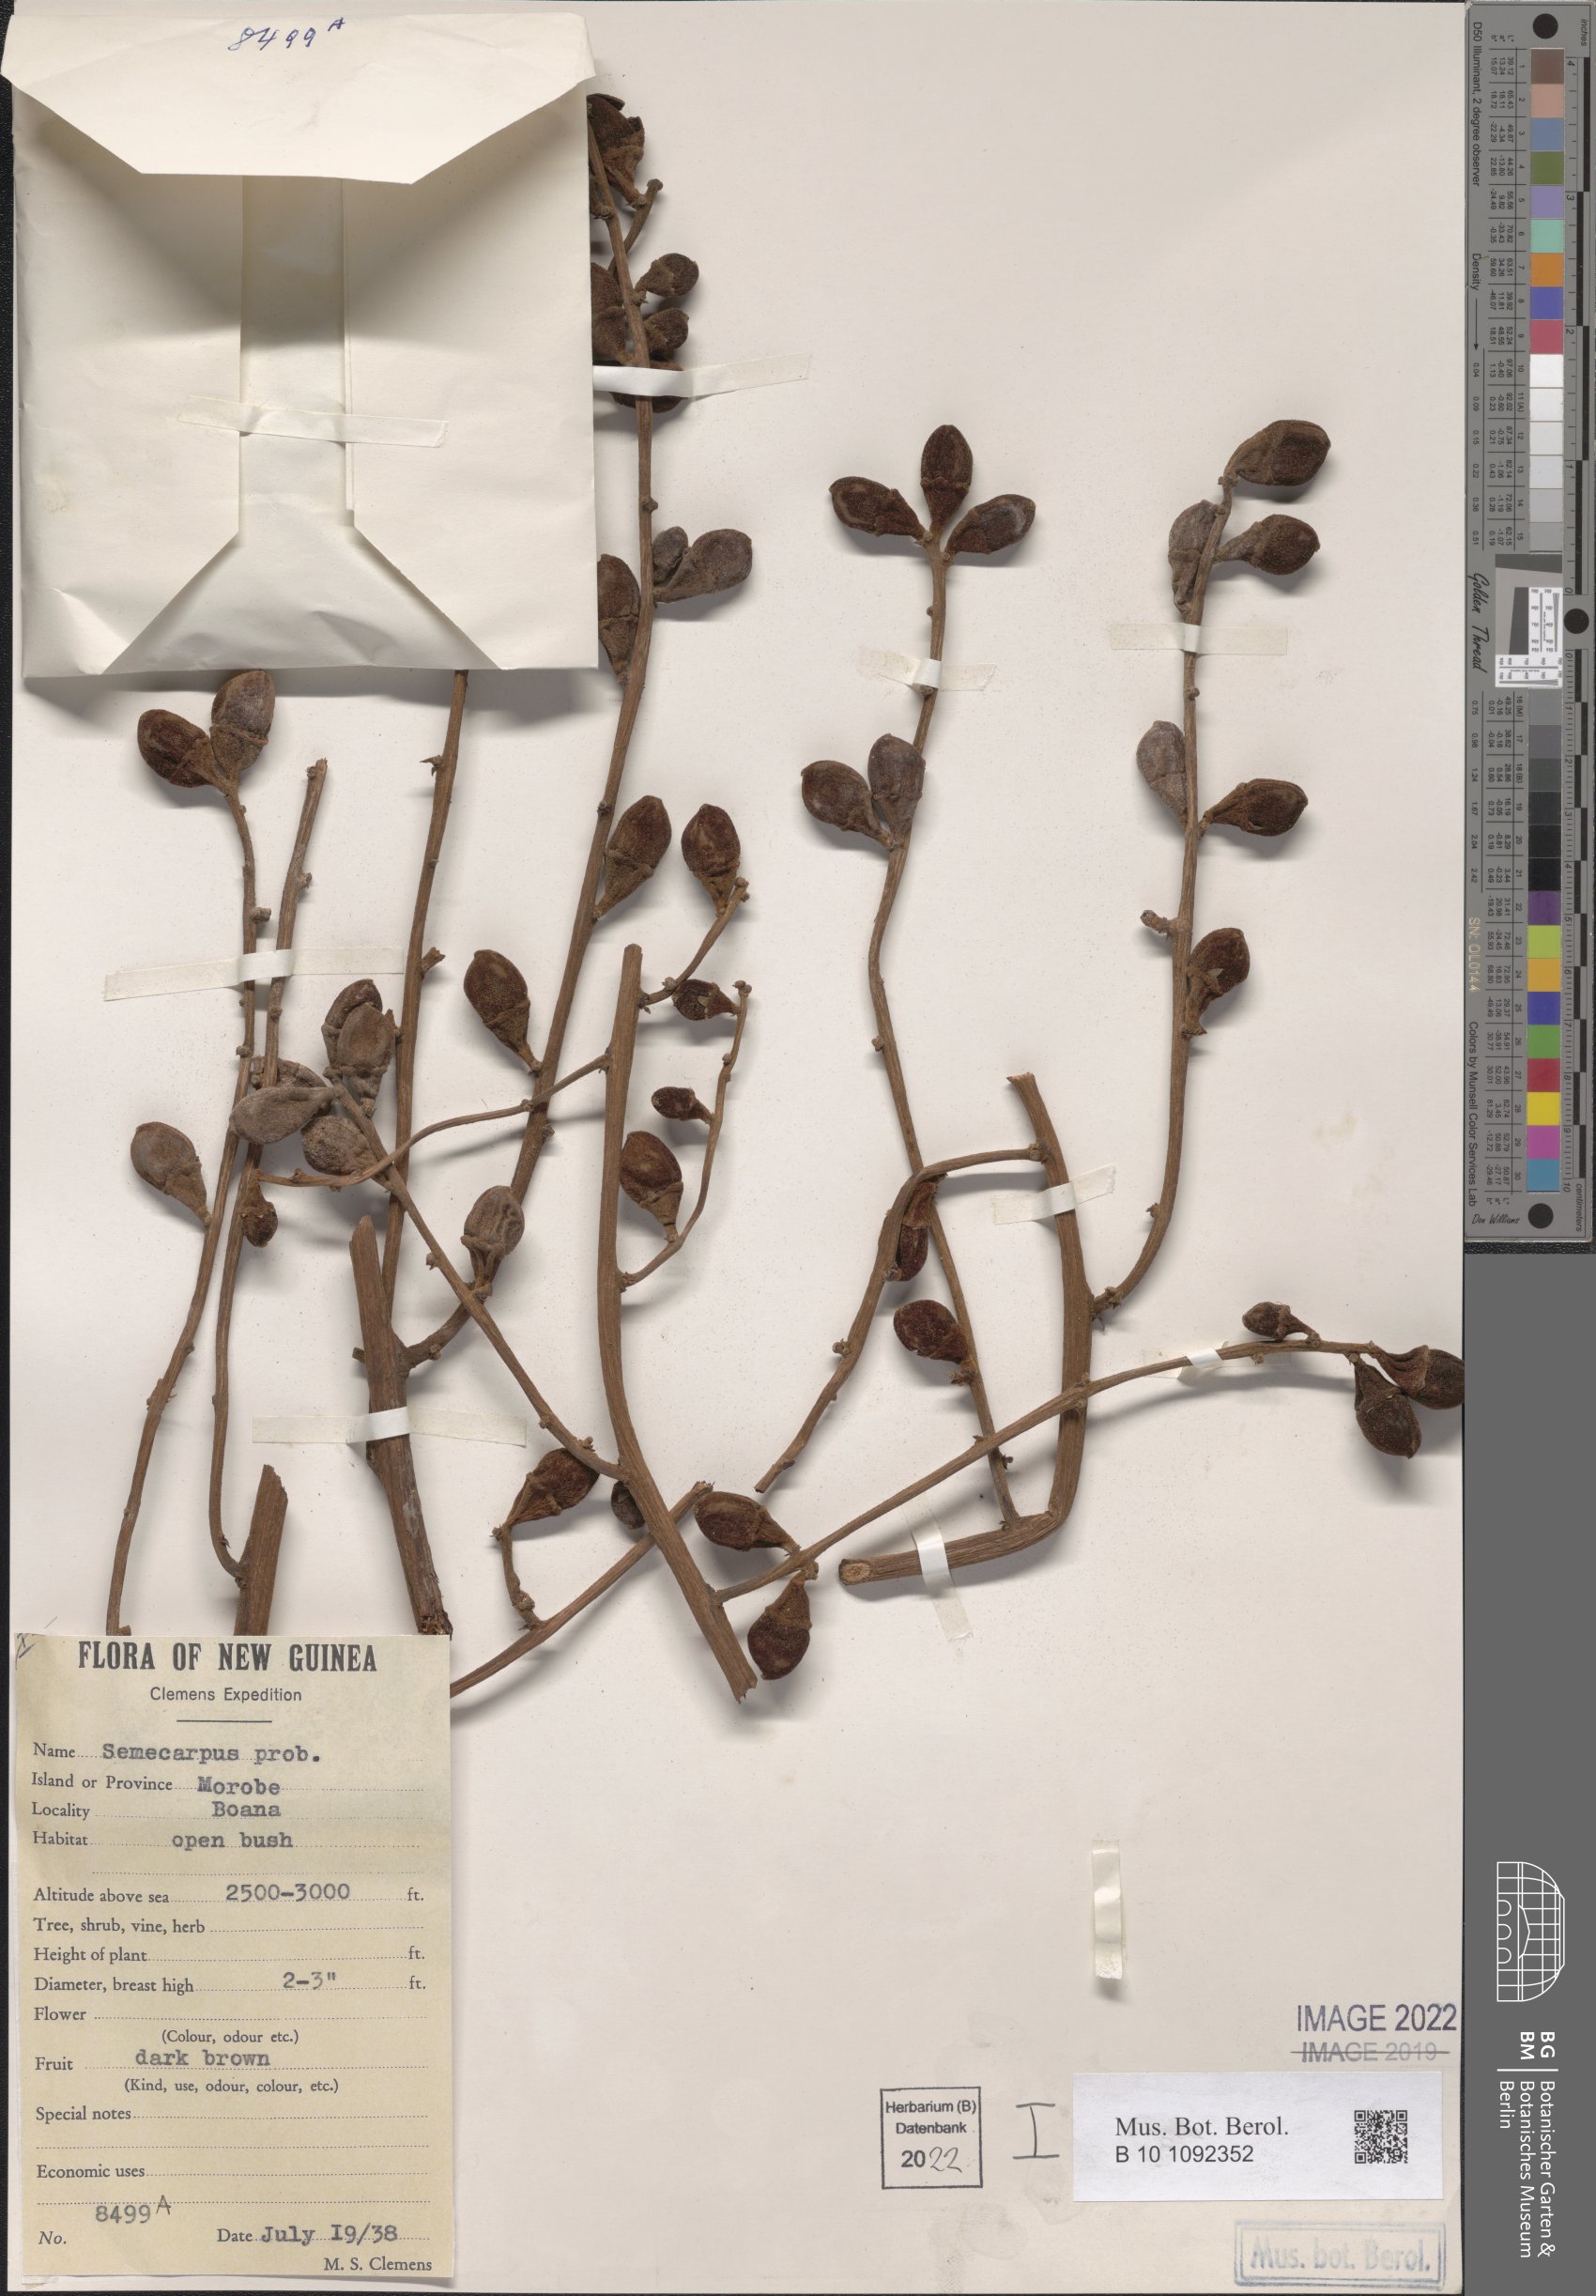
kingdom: Plantae
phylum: Tracheophyta
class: Magnoliopsida
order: Sapindales
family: Anacardiaceae
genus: Semecarpus
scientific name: Semecarpus
